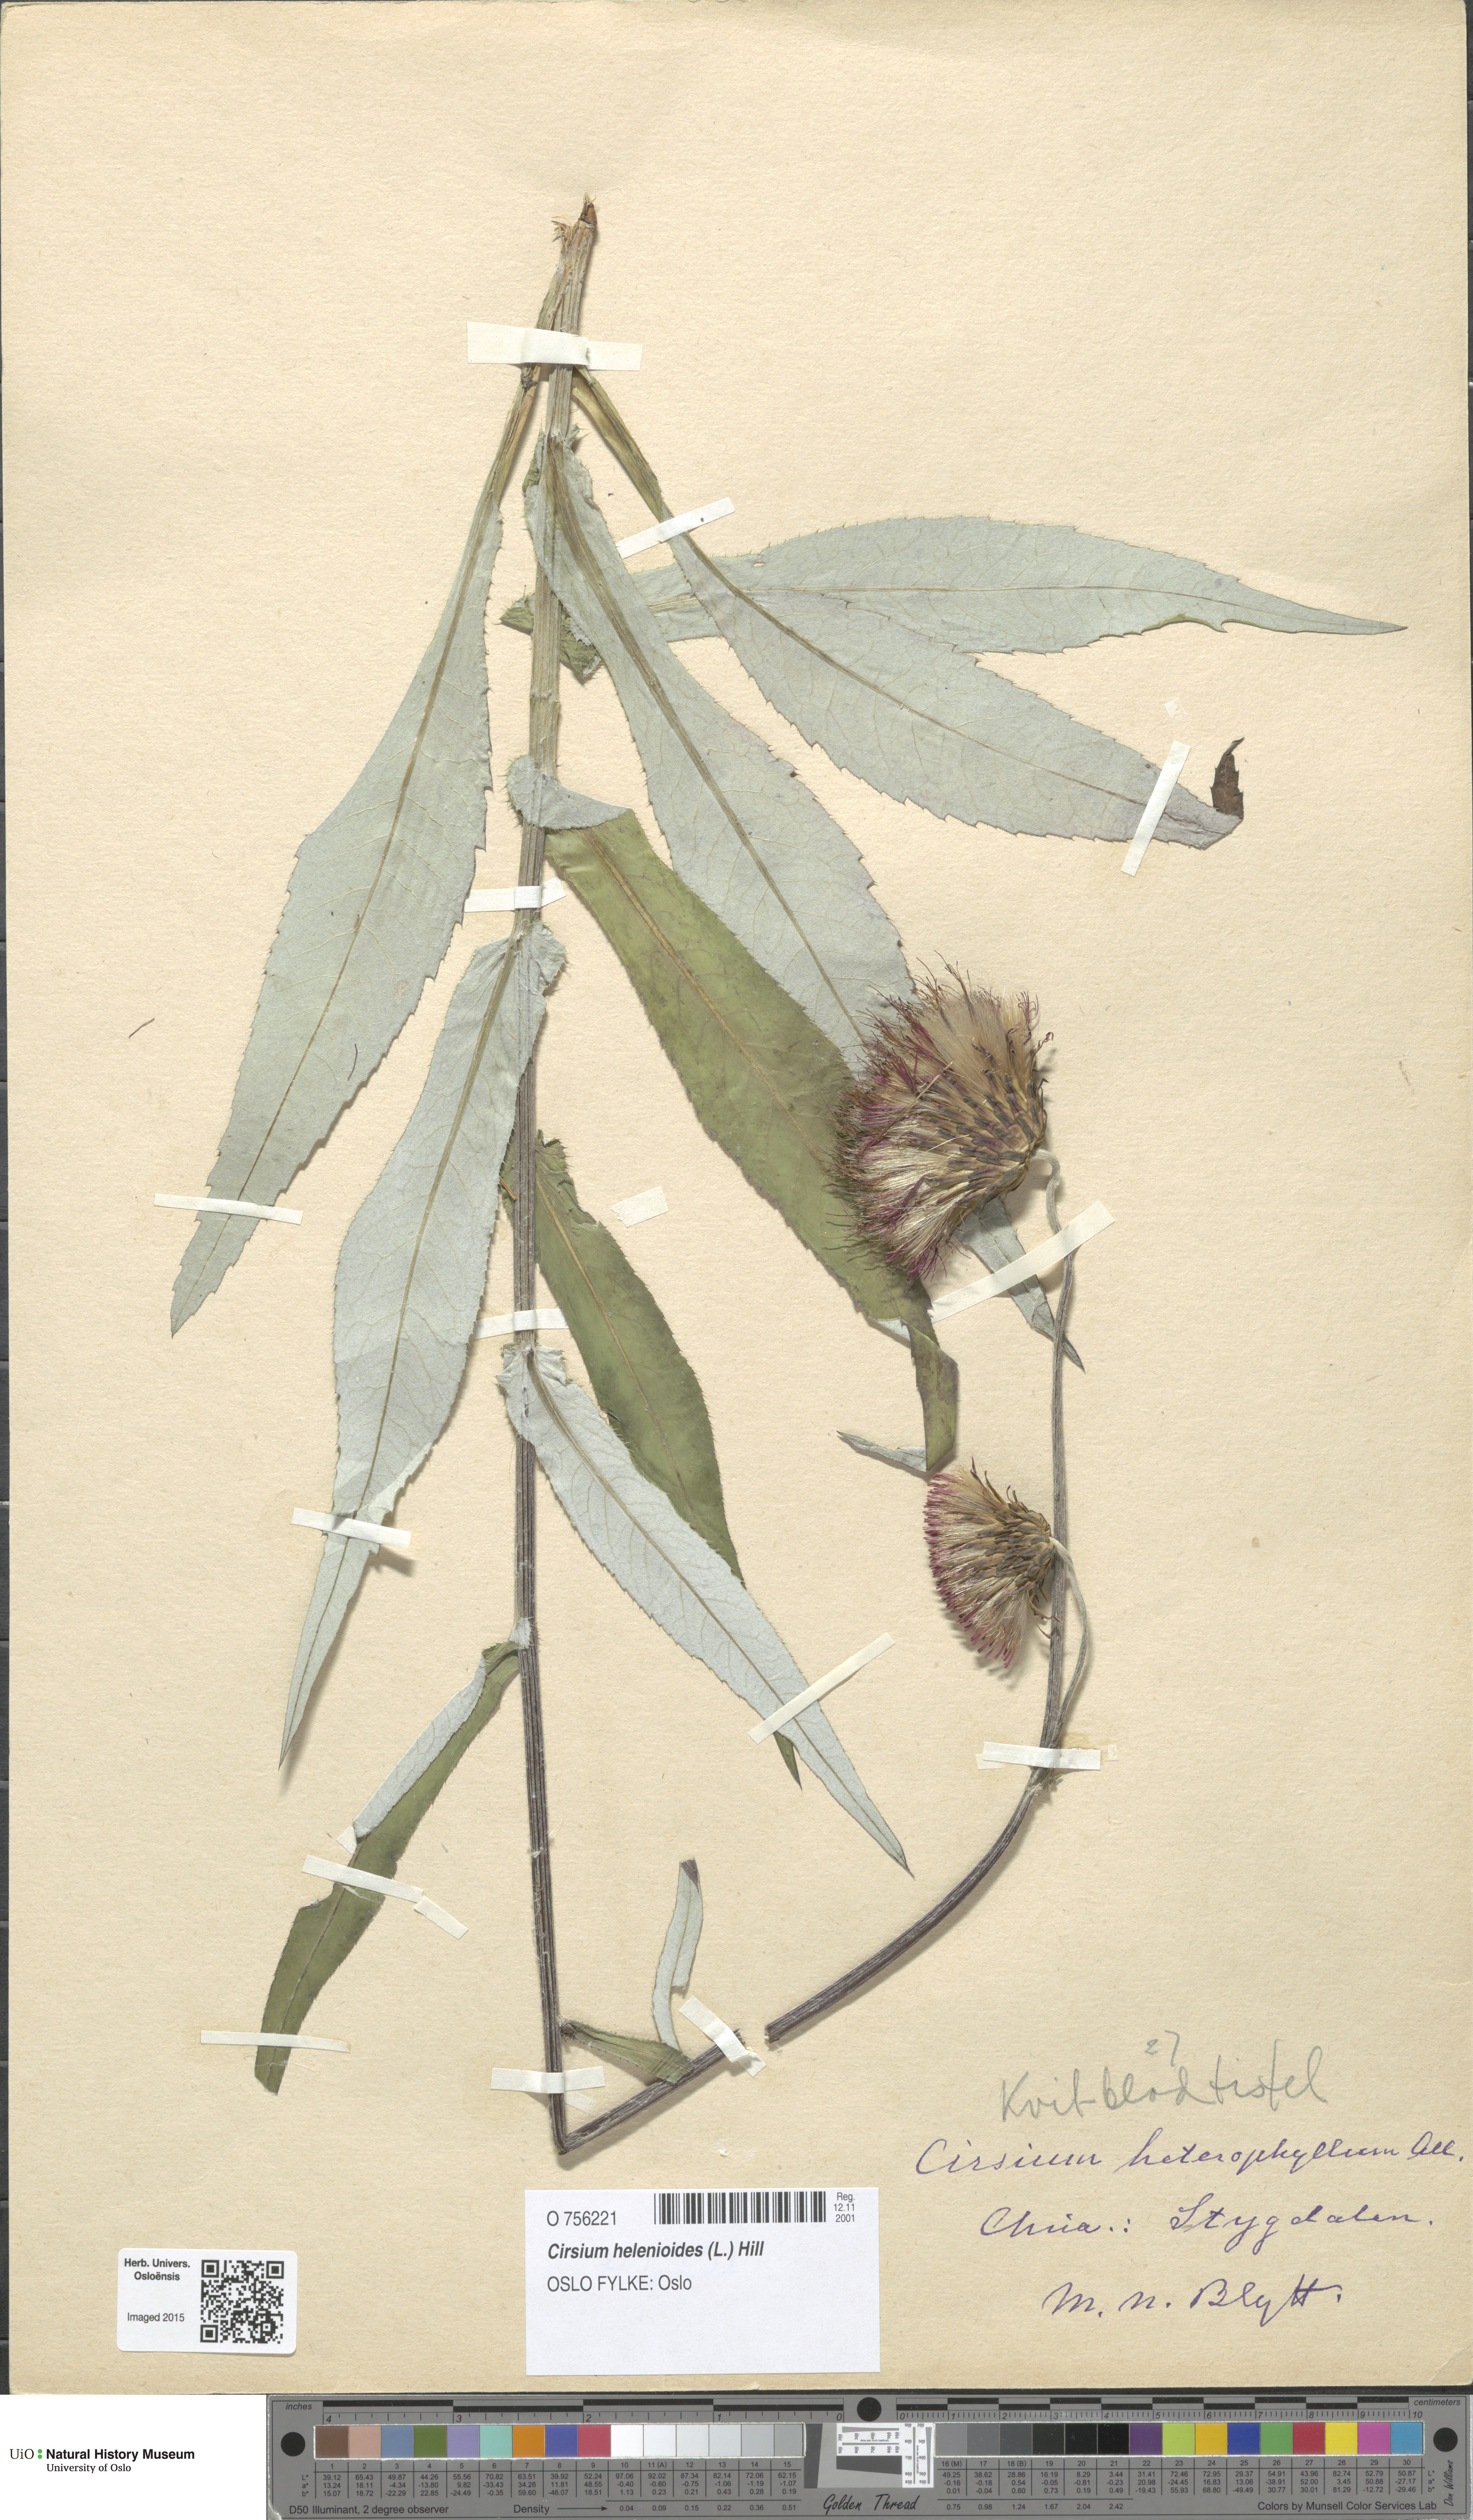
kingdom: Plantae
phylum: Tracheophyta
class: Magnoliopsida
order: Asterales
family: Asteraceae
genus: Cirsium
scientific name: Cirsium heterophyllum
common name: Melancholy thistle
